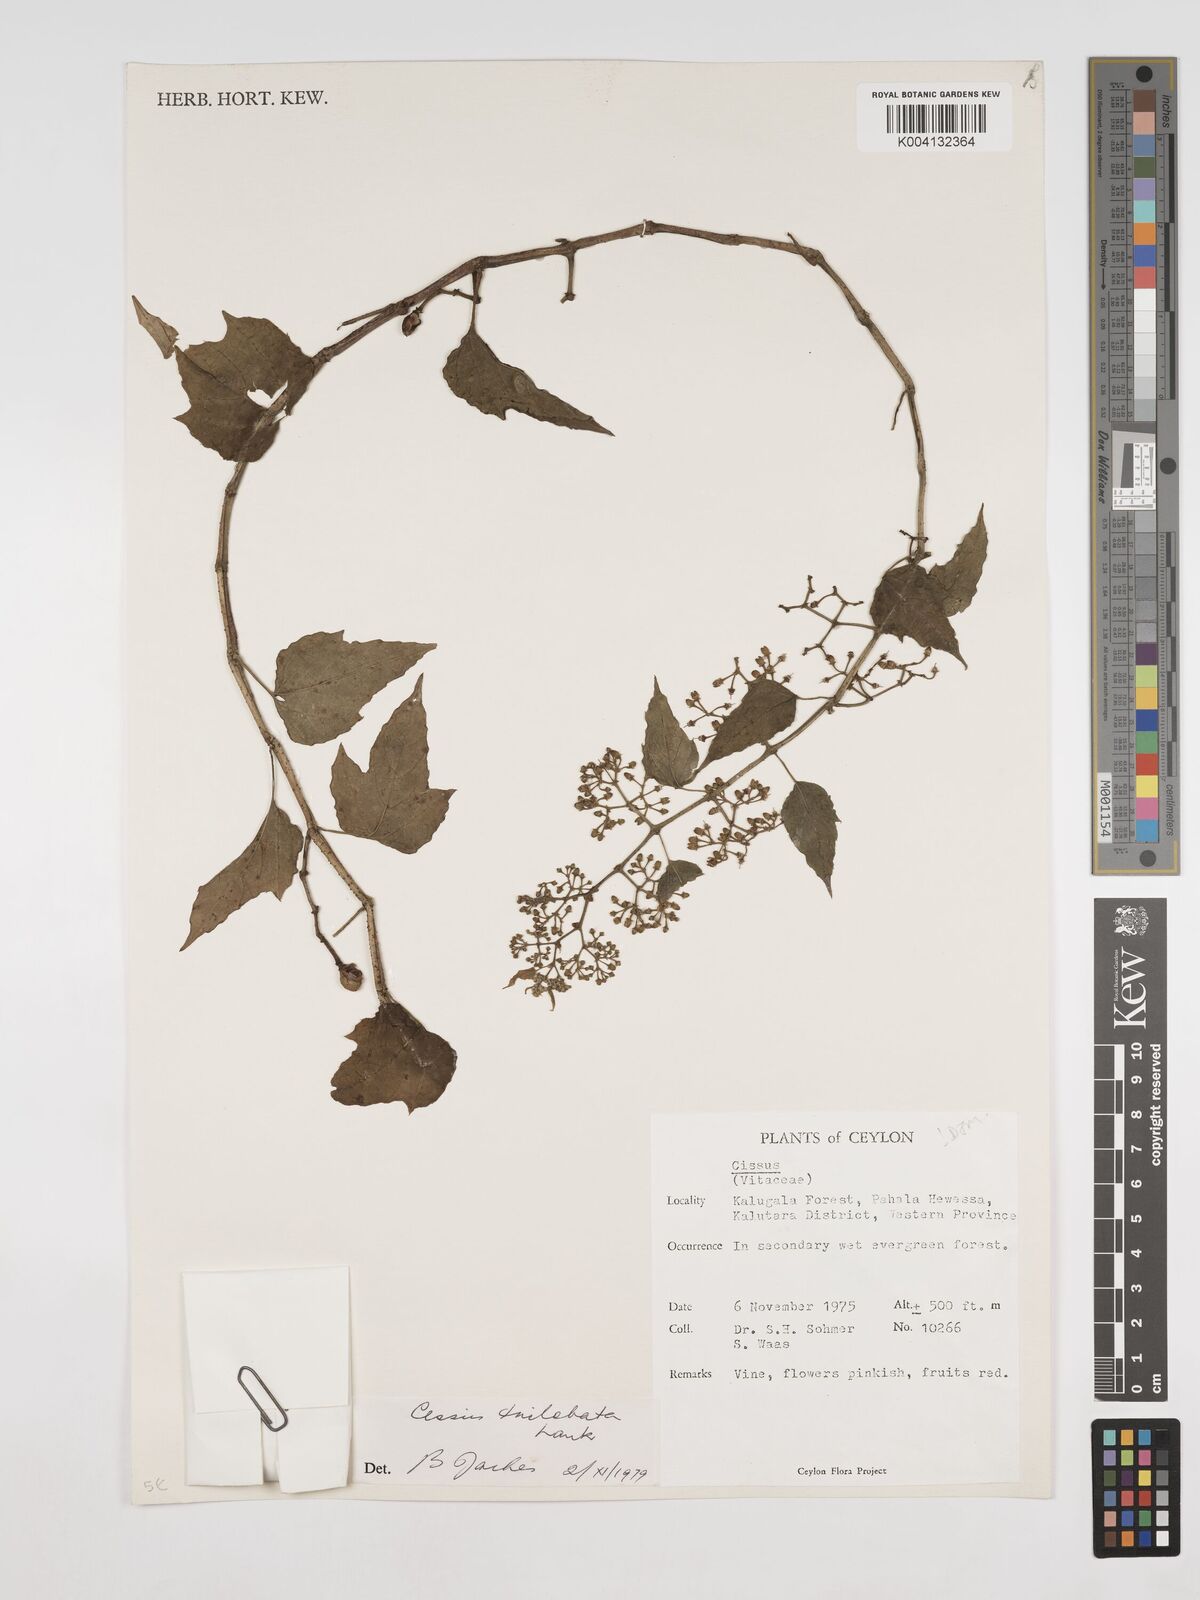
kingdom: Plantae
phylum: Tracheophyta
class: Magnoliopsida
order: Vitales
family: Vitaceae
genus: Cissus
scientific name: Cissus trilobata
